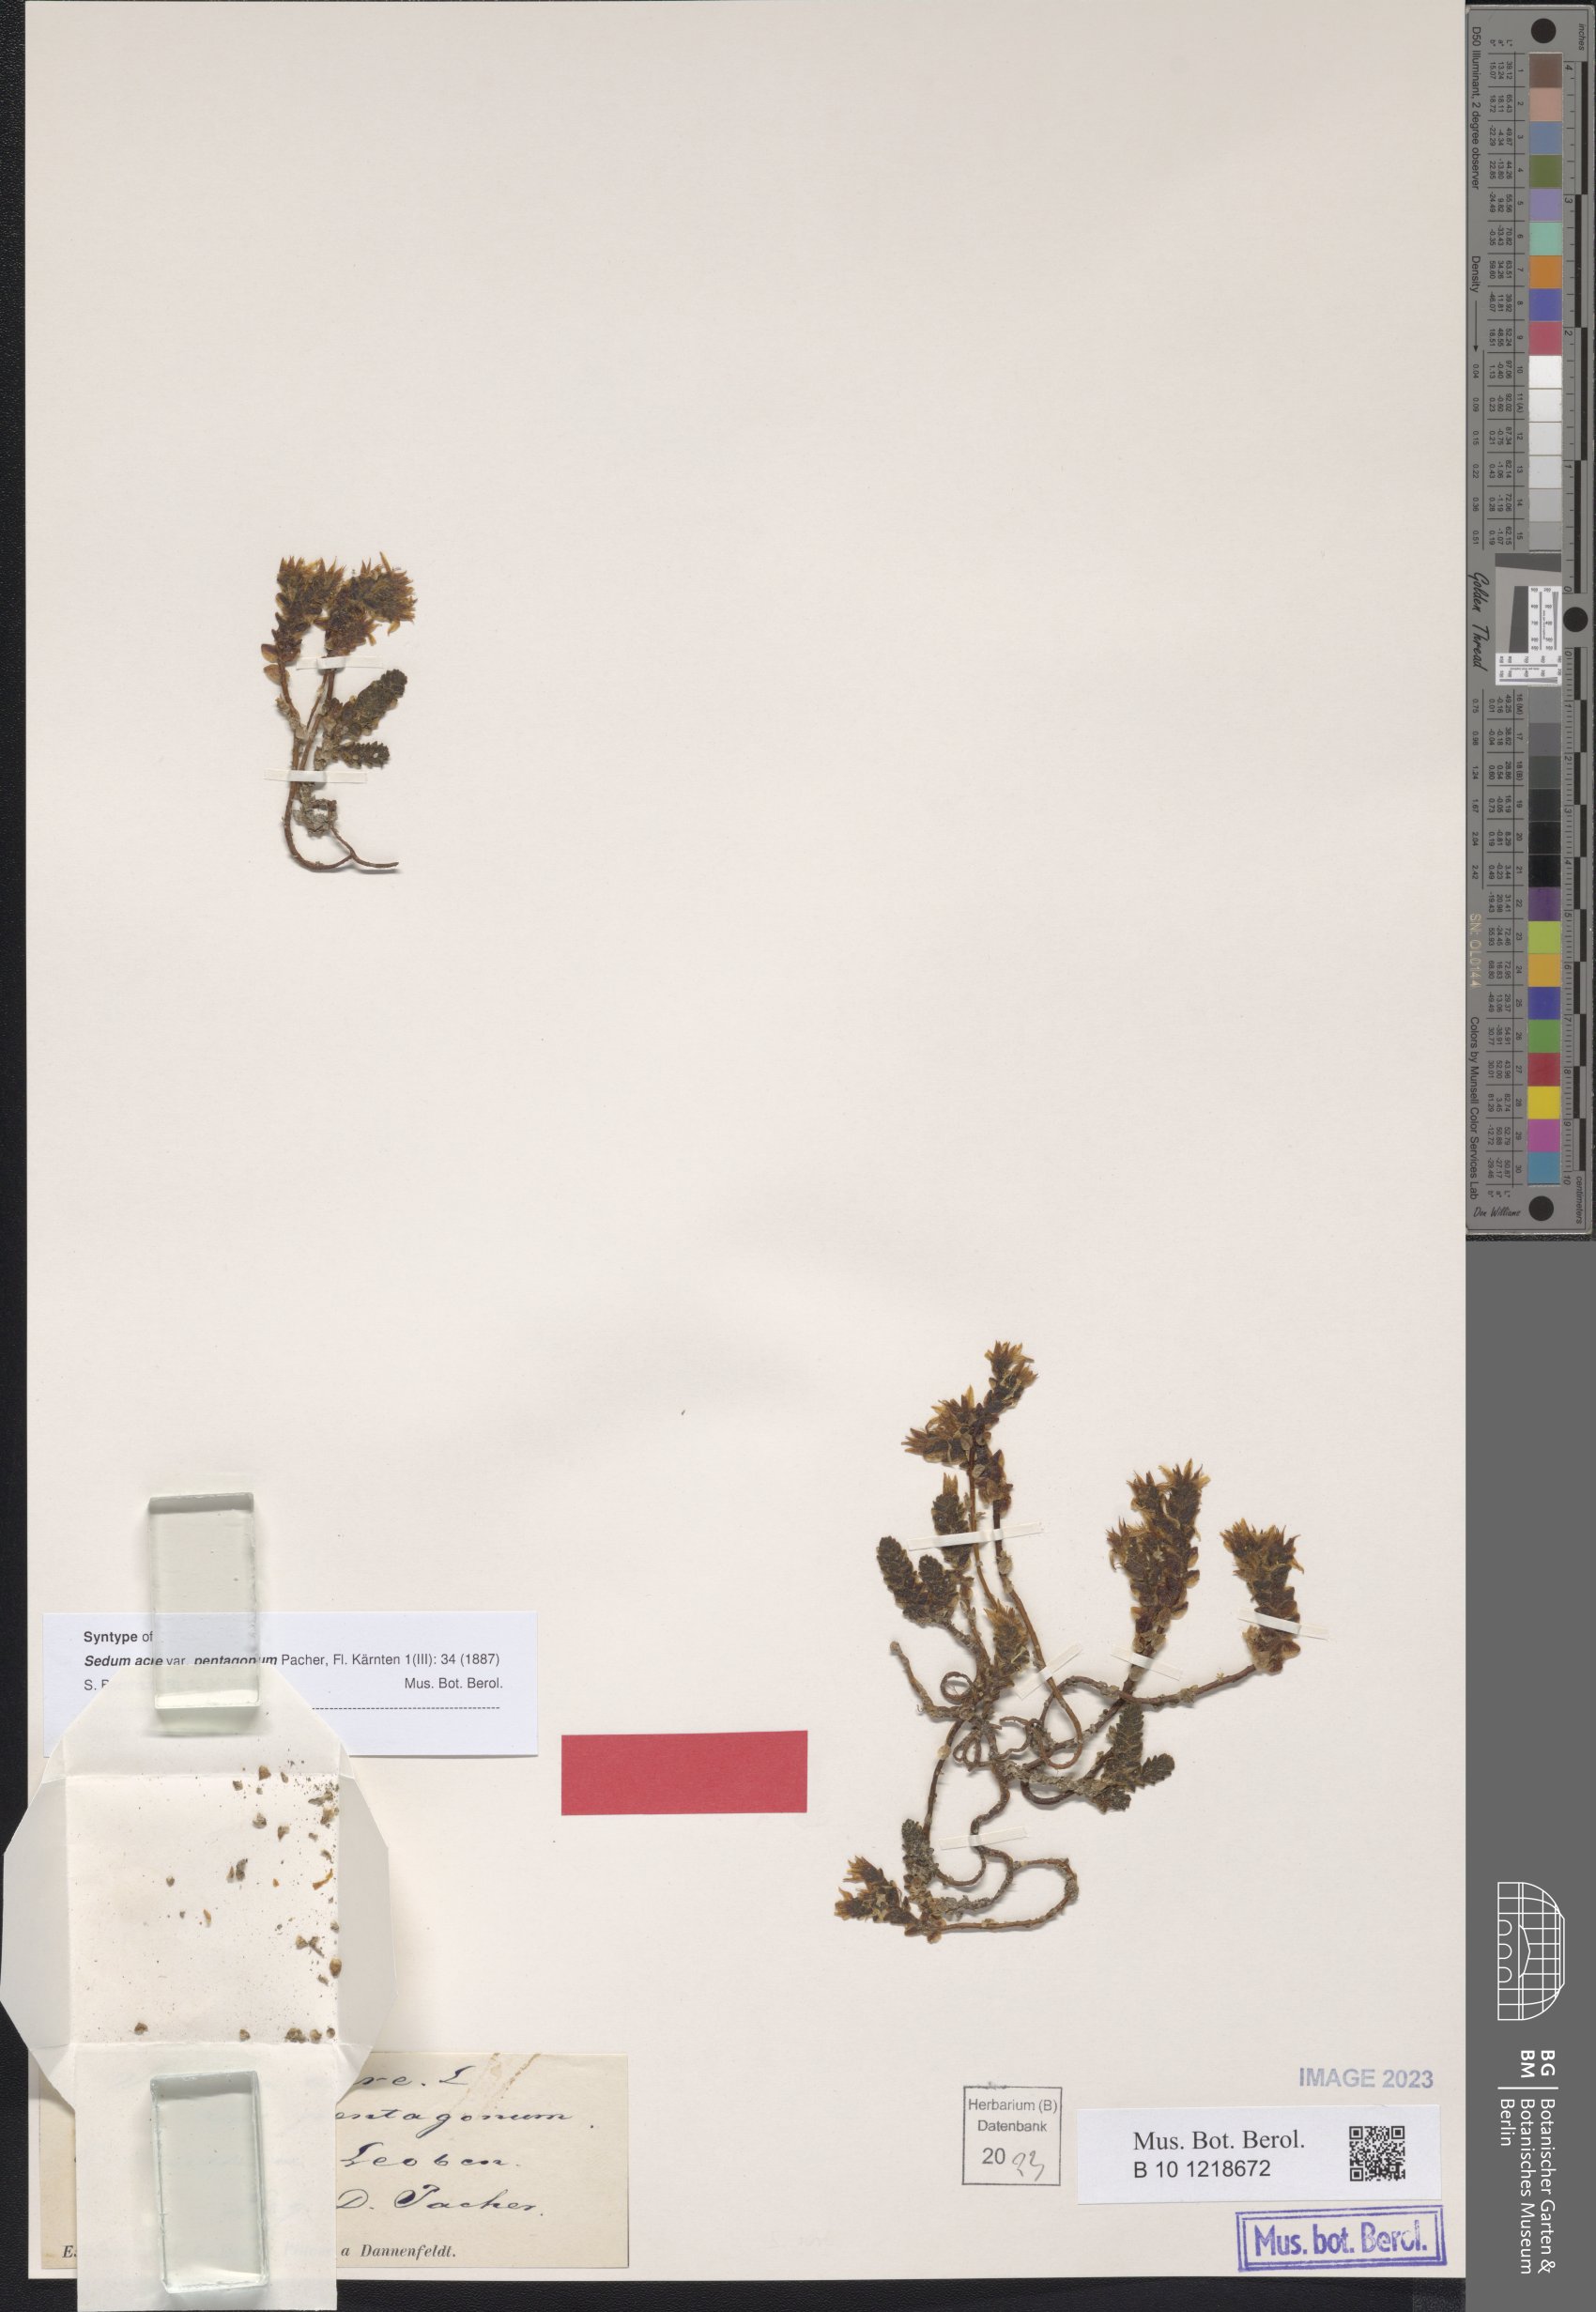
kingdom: Plantae
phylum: Tracheophyta
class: Magnoliopsida
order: Saxifragales
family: Crassulaceae
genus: Sedum
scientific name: Sedum acre
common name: Biting stonecrop
